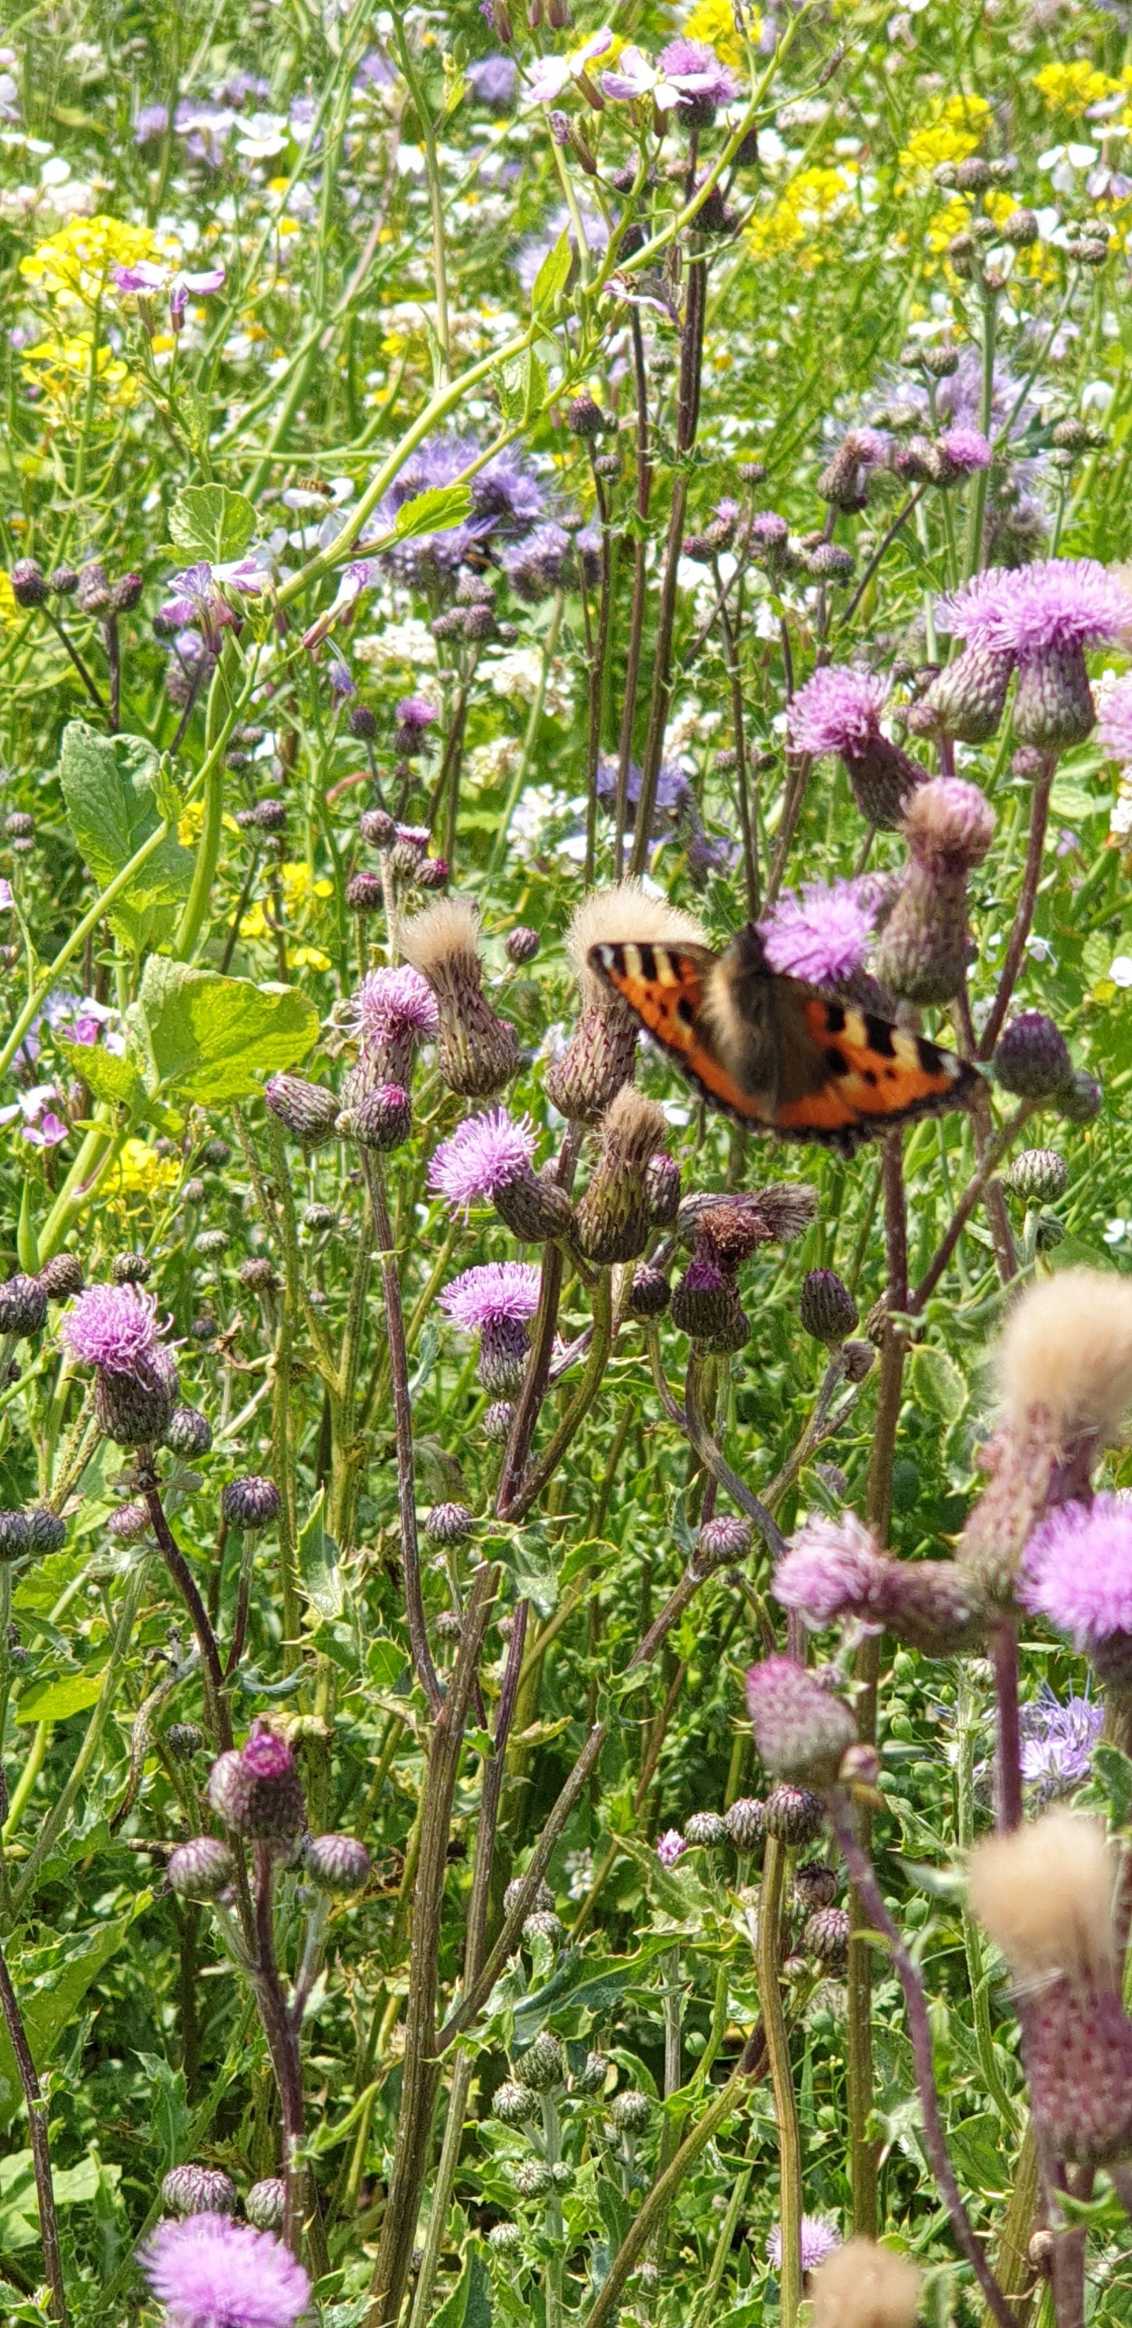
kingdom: Animalia
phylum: Arthropoda
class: Insecta
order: Lepidoptera
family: Nymphalidae
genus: Aglais
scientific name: Aglais urticae
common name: Nældens takvinge
